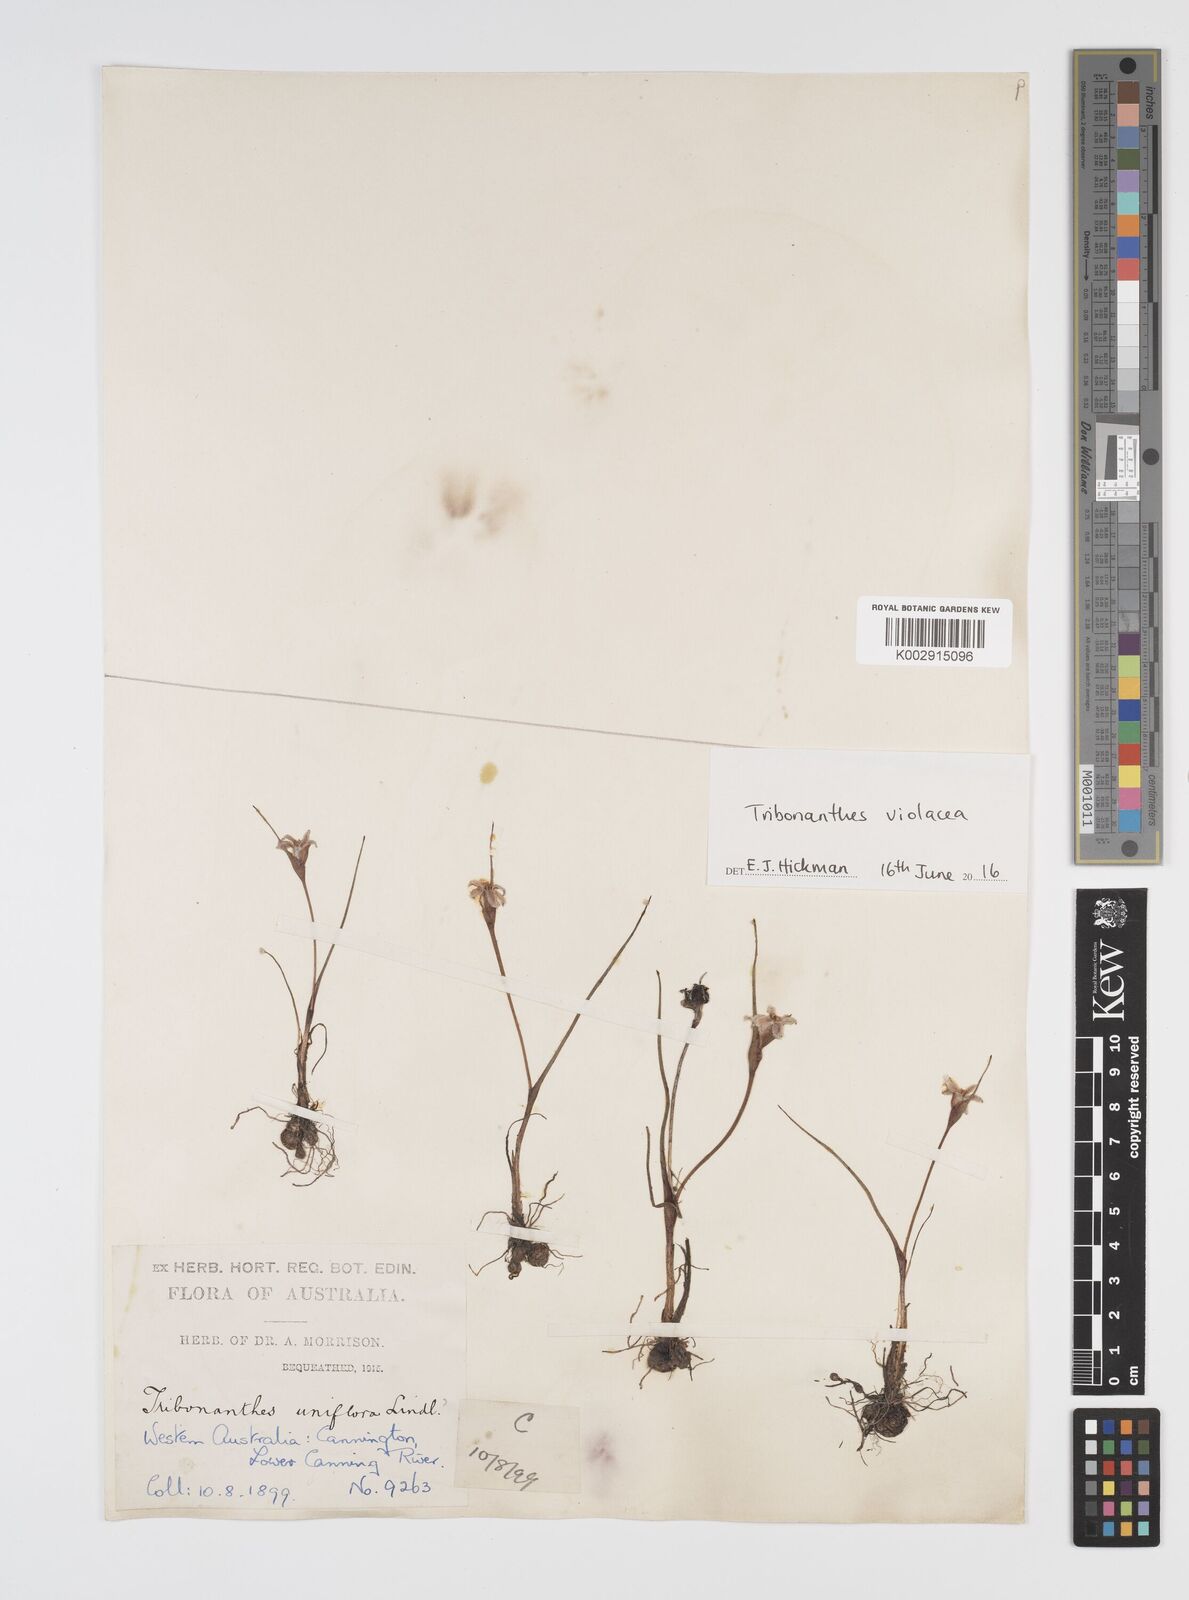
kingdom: Plantae
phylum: Tracheophyta
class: Liliopsida
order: Commelinales
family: Haemodoraceae
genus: Tribonanthes
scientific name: Tribonanthes uniflora
